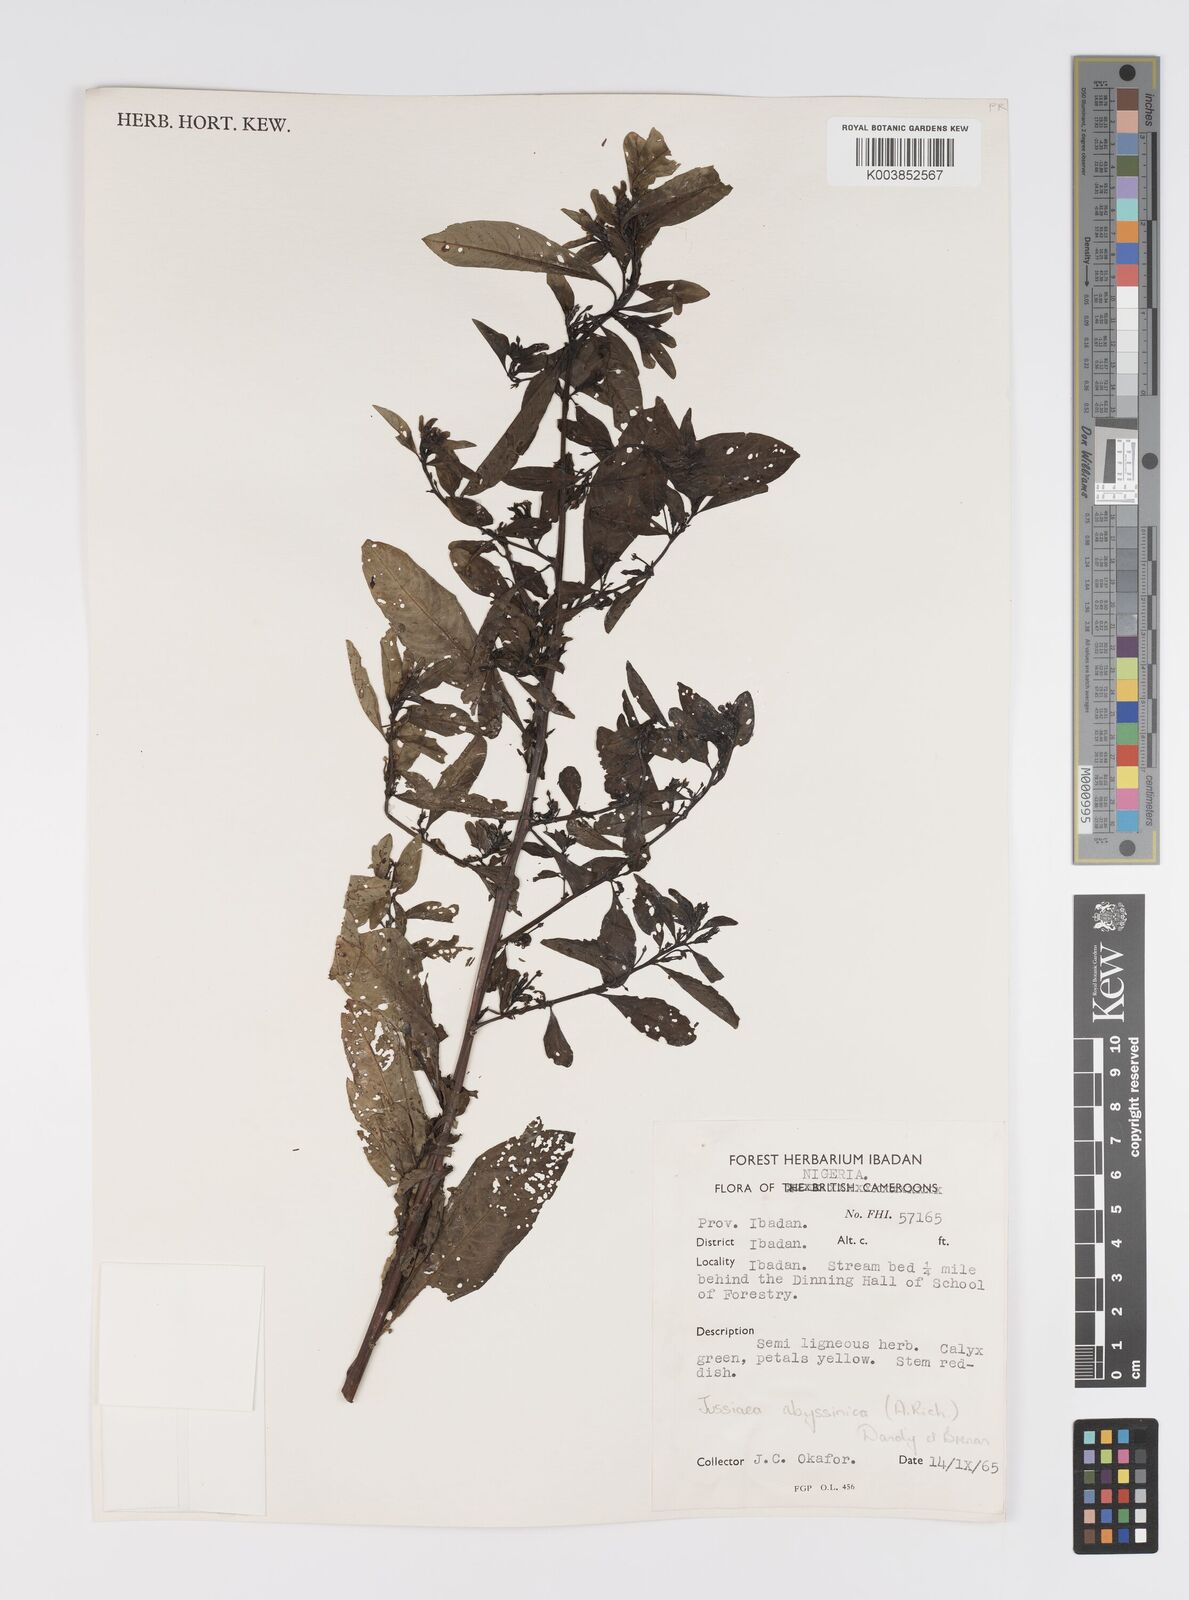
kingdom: Plantae
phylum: Tracheophyta
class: Magnoliopsida
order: Myrtales
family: Onagraceae
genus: Ludwigia
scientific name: Ludwigia abyssinica
